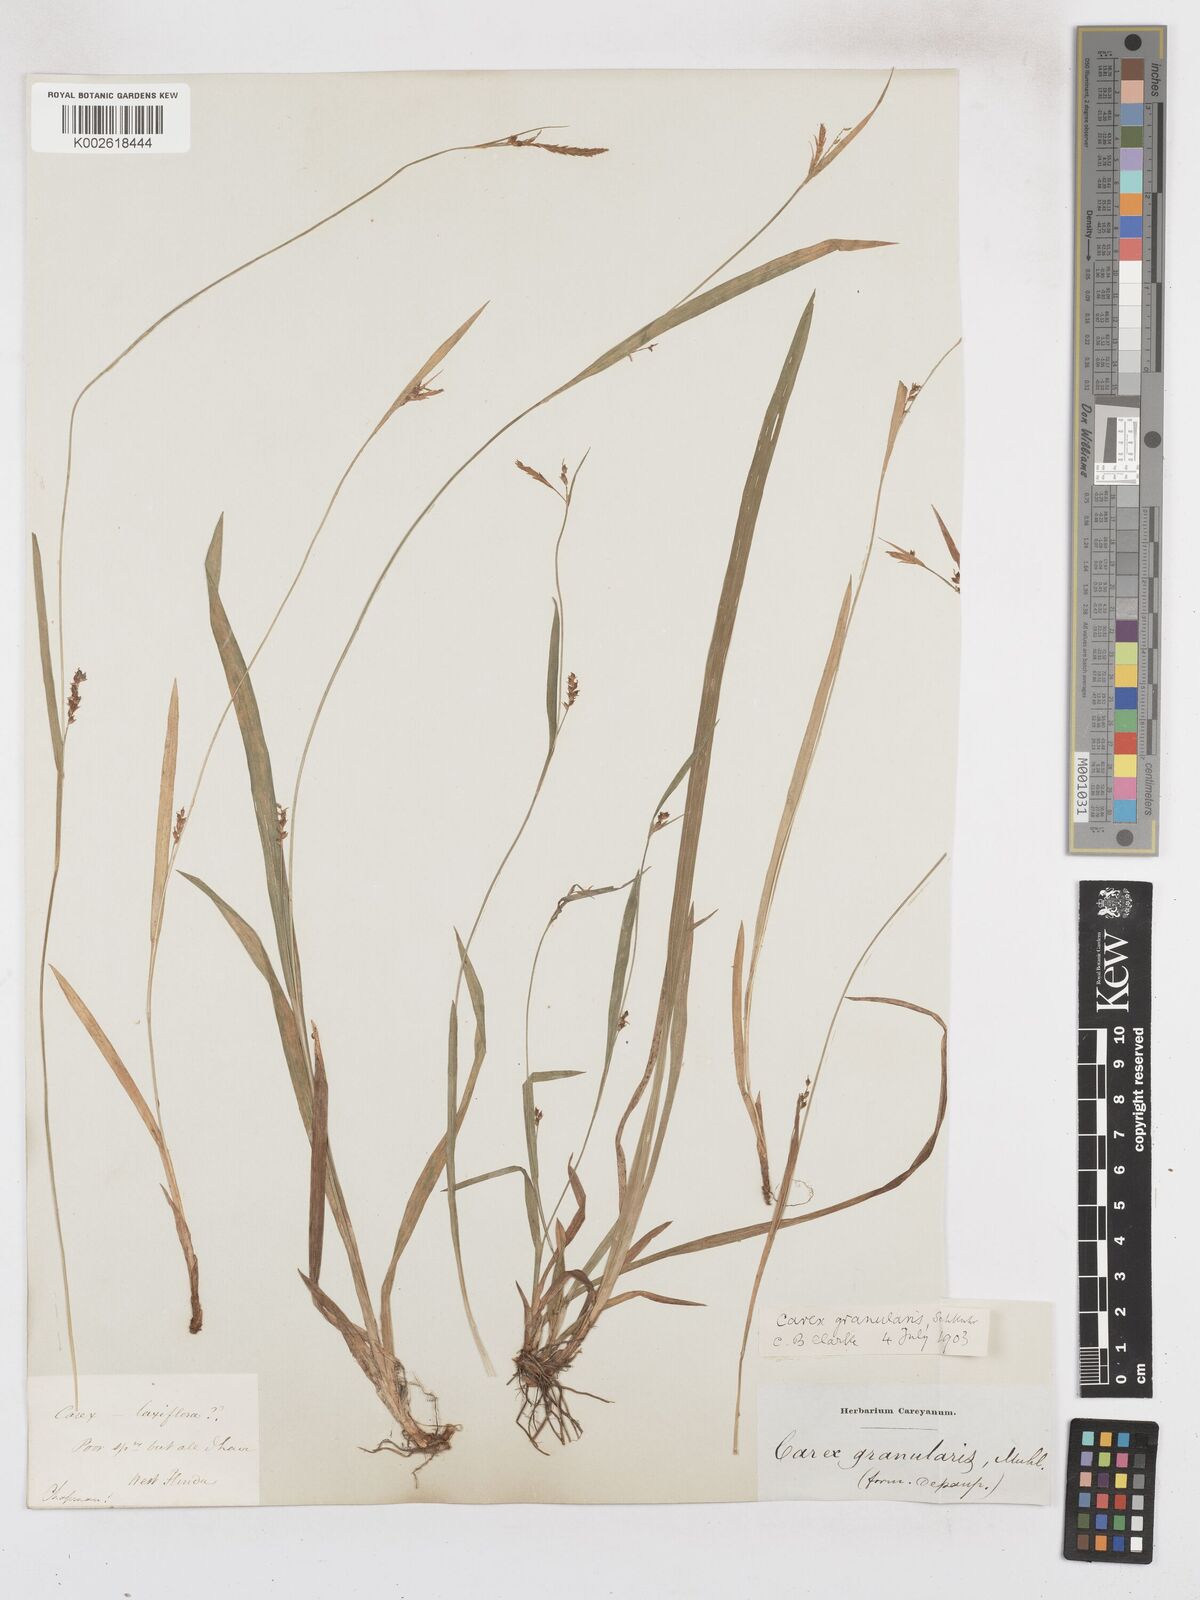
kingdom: Plantae
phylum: Tracheophyta
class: Liliopsida
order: Poales
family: Cyperaceae
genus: Carex
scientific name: Carex livida
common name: Livid sedge
